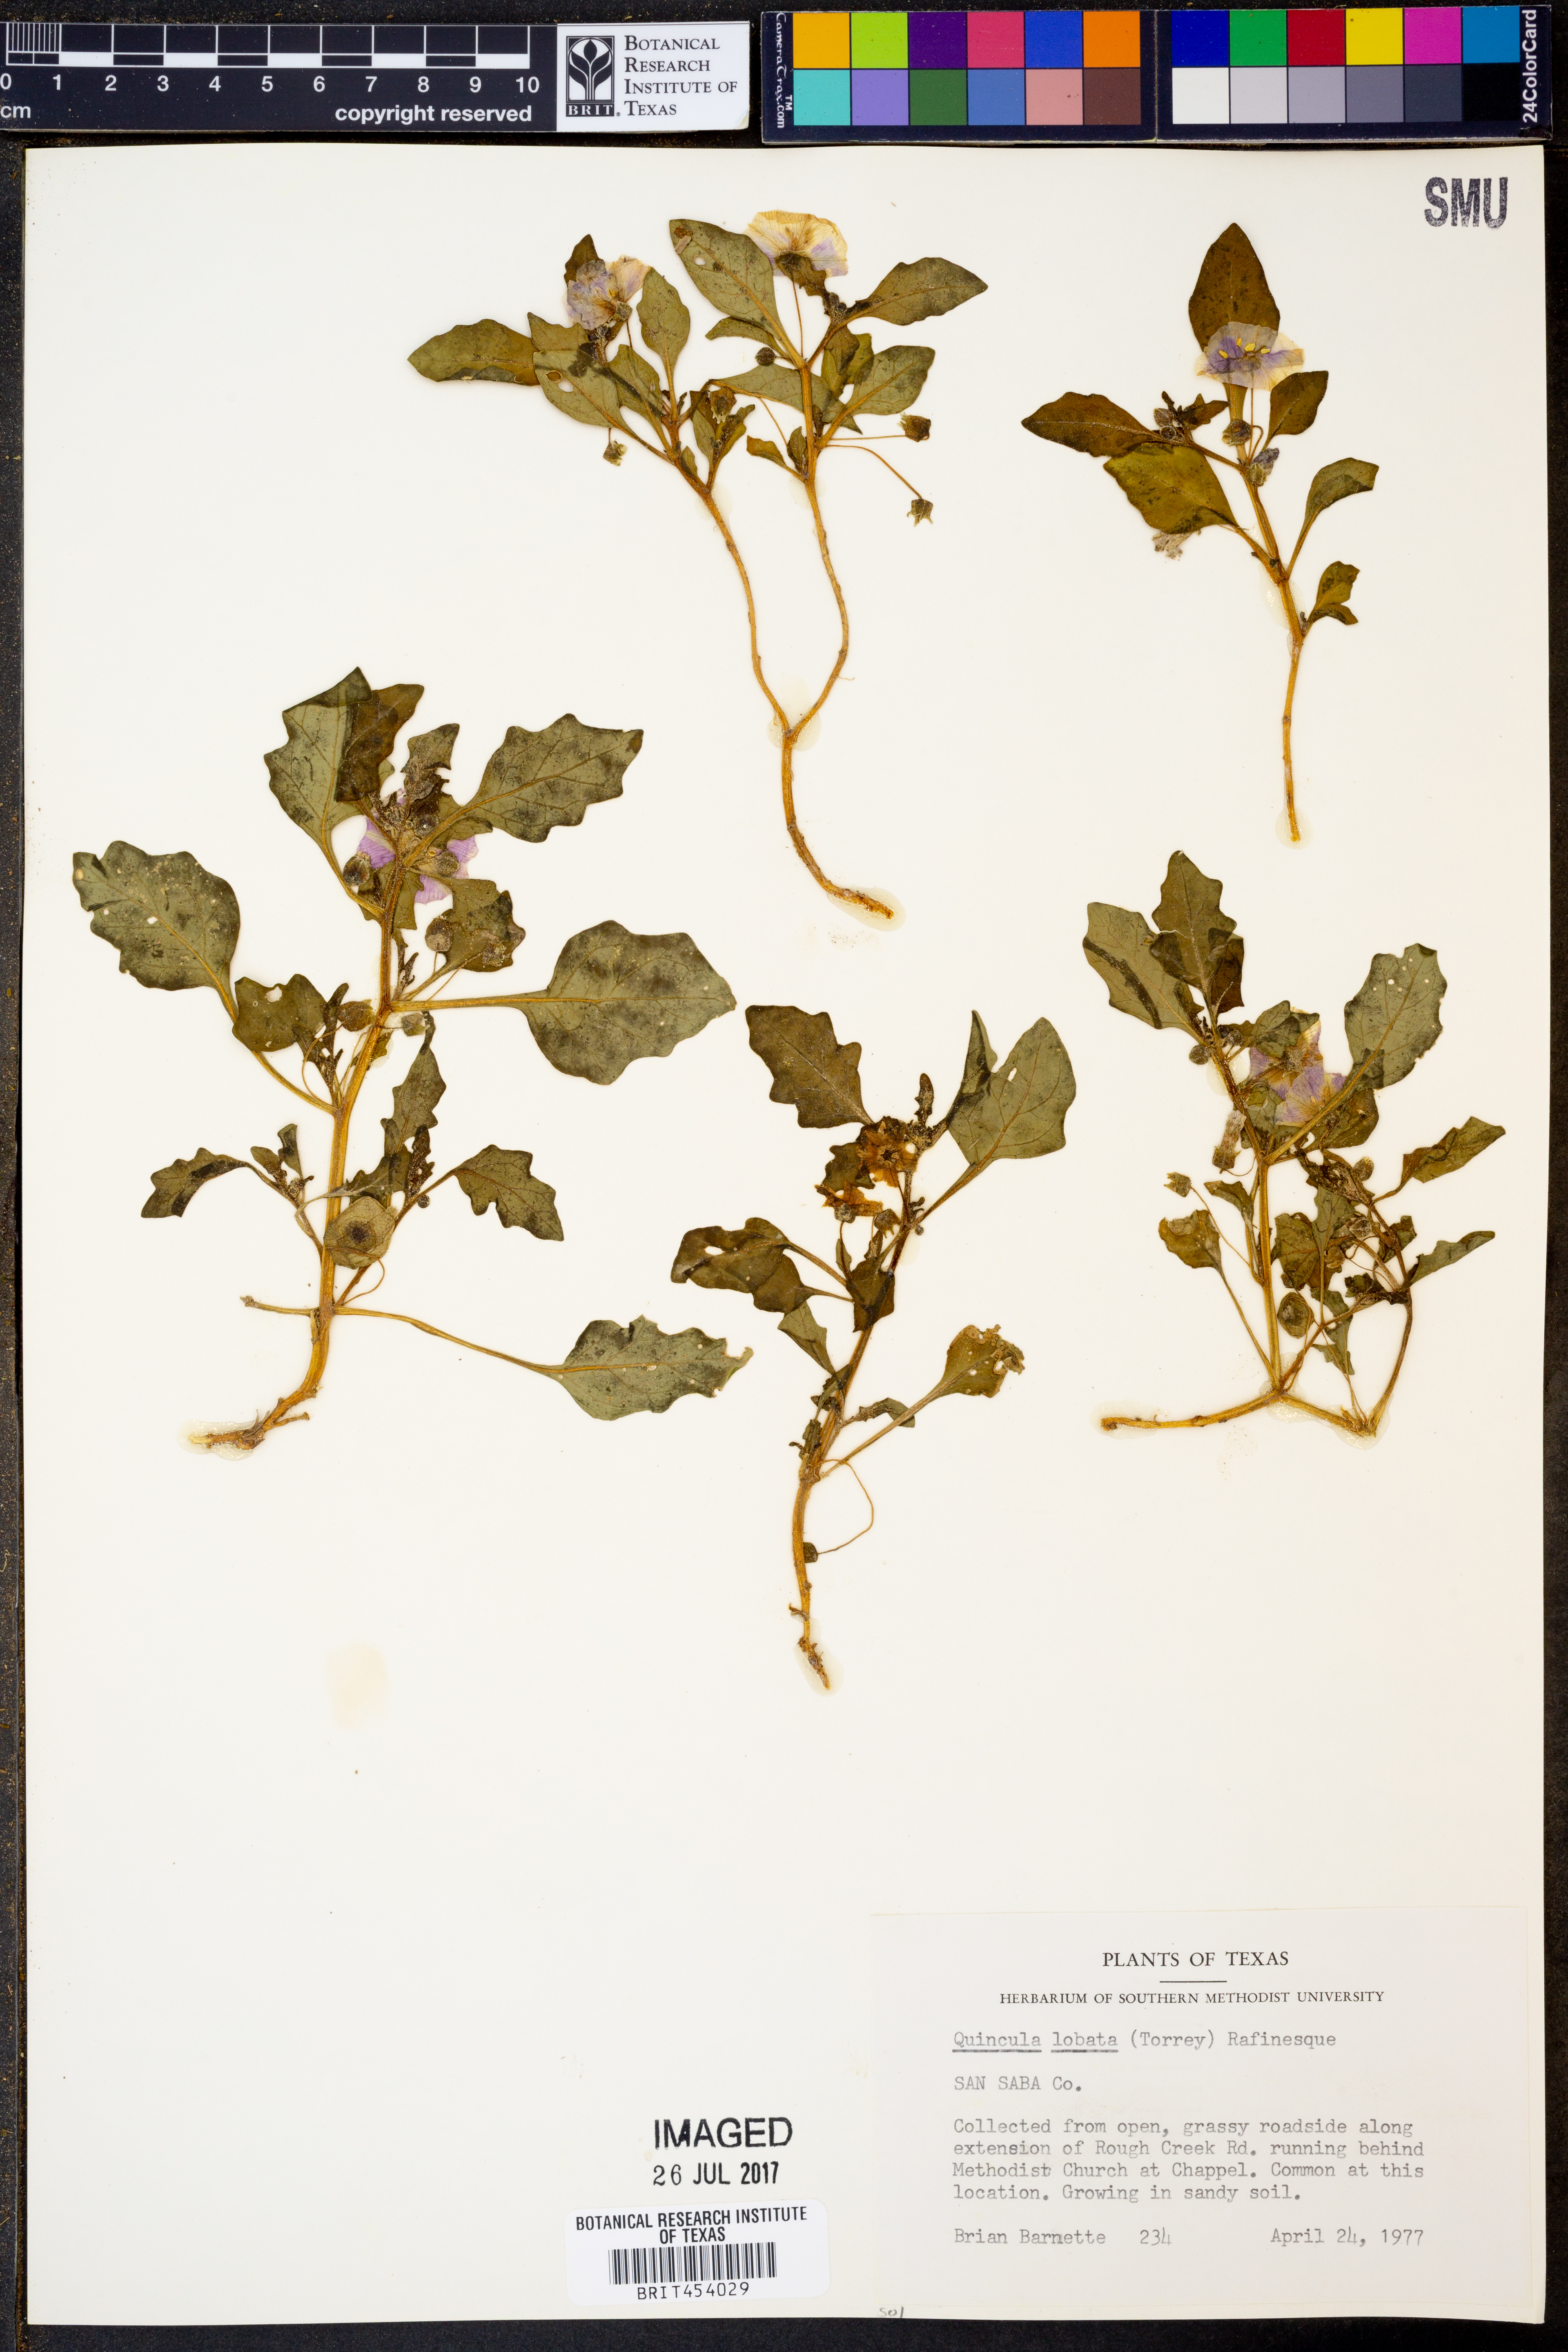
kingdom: Plantae
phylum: Tracheophyta
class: Magnoliopsida
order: Solanales
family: Solanaceae
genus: Quincula
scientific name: Quincula lobata
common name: Purple-ground-cherry
